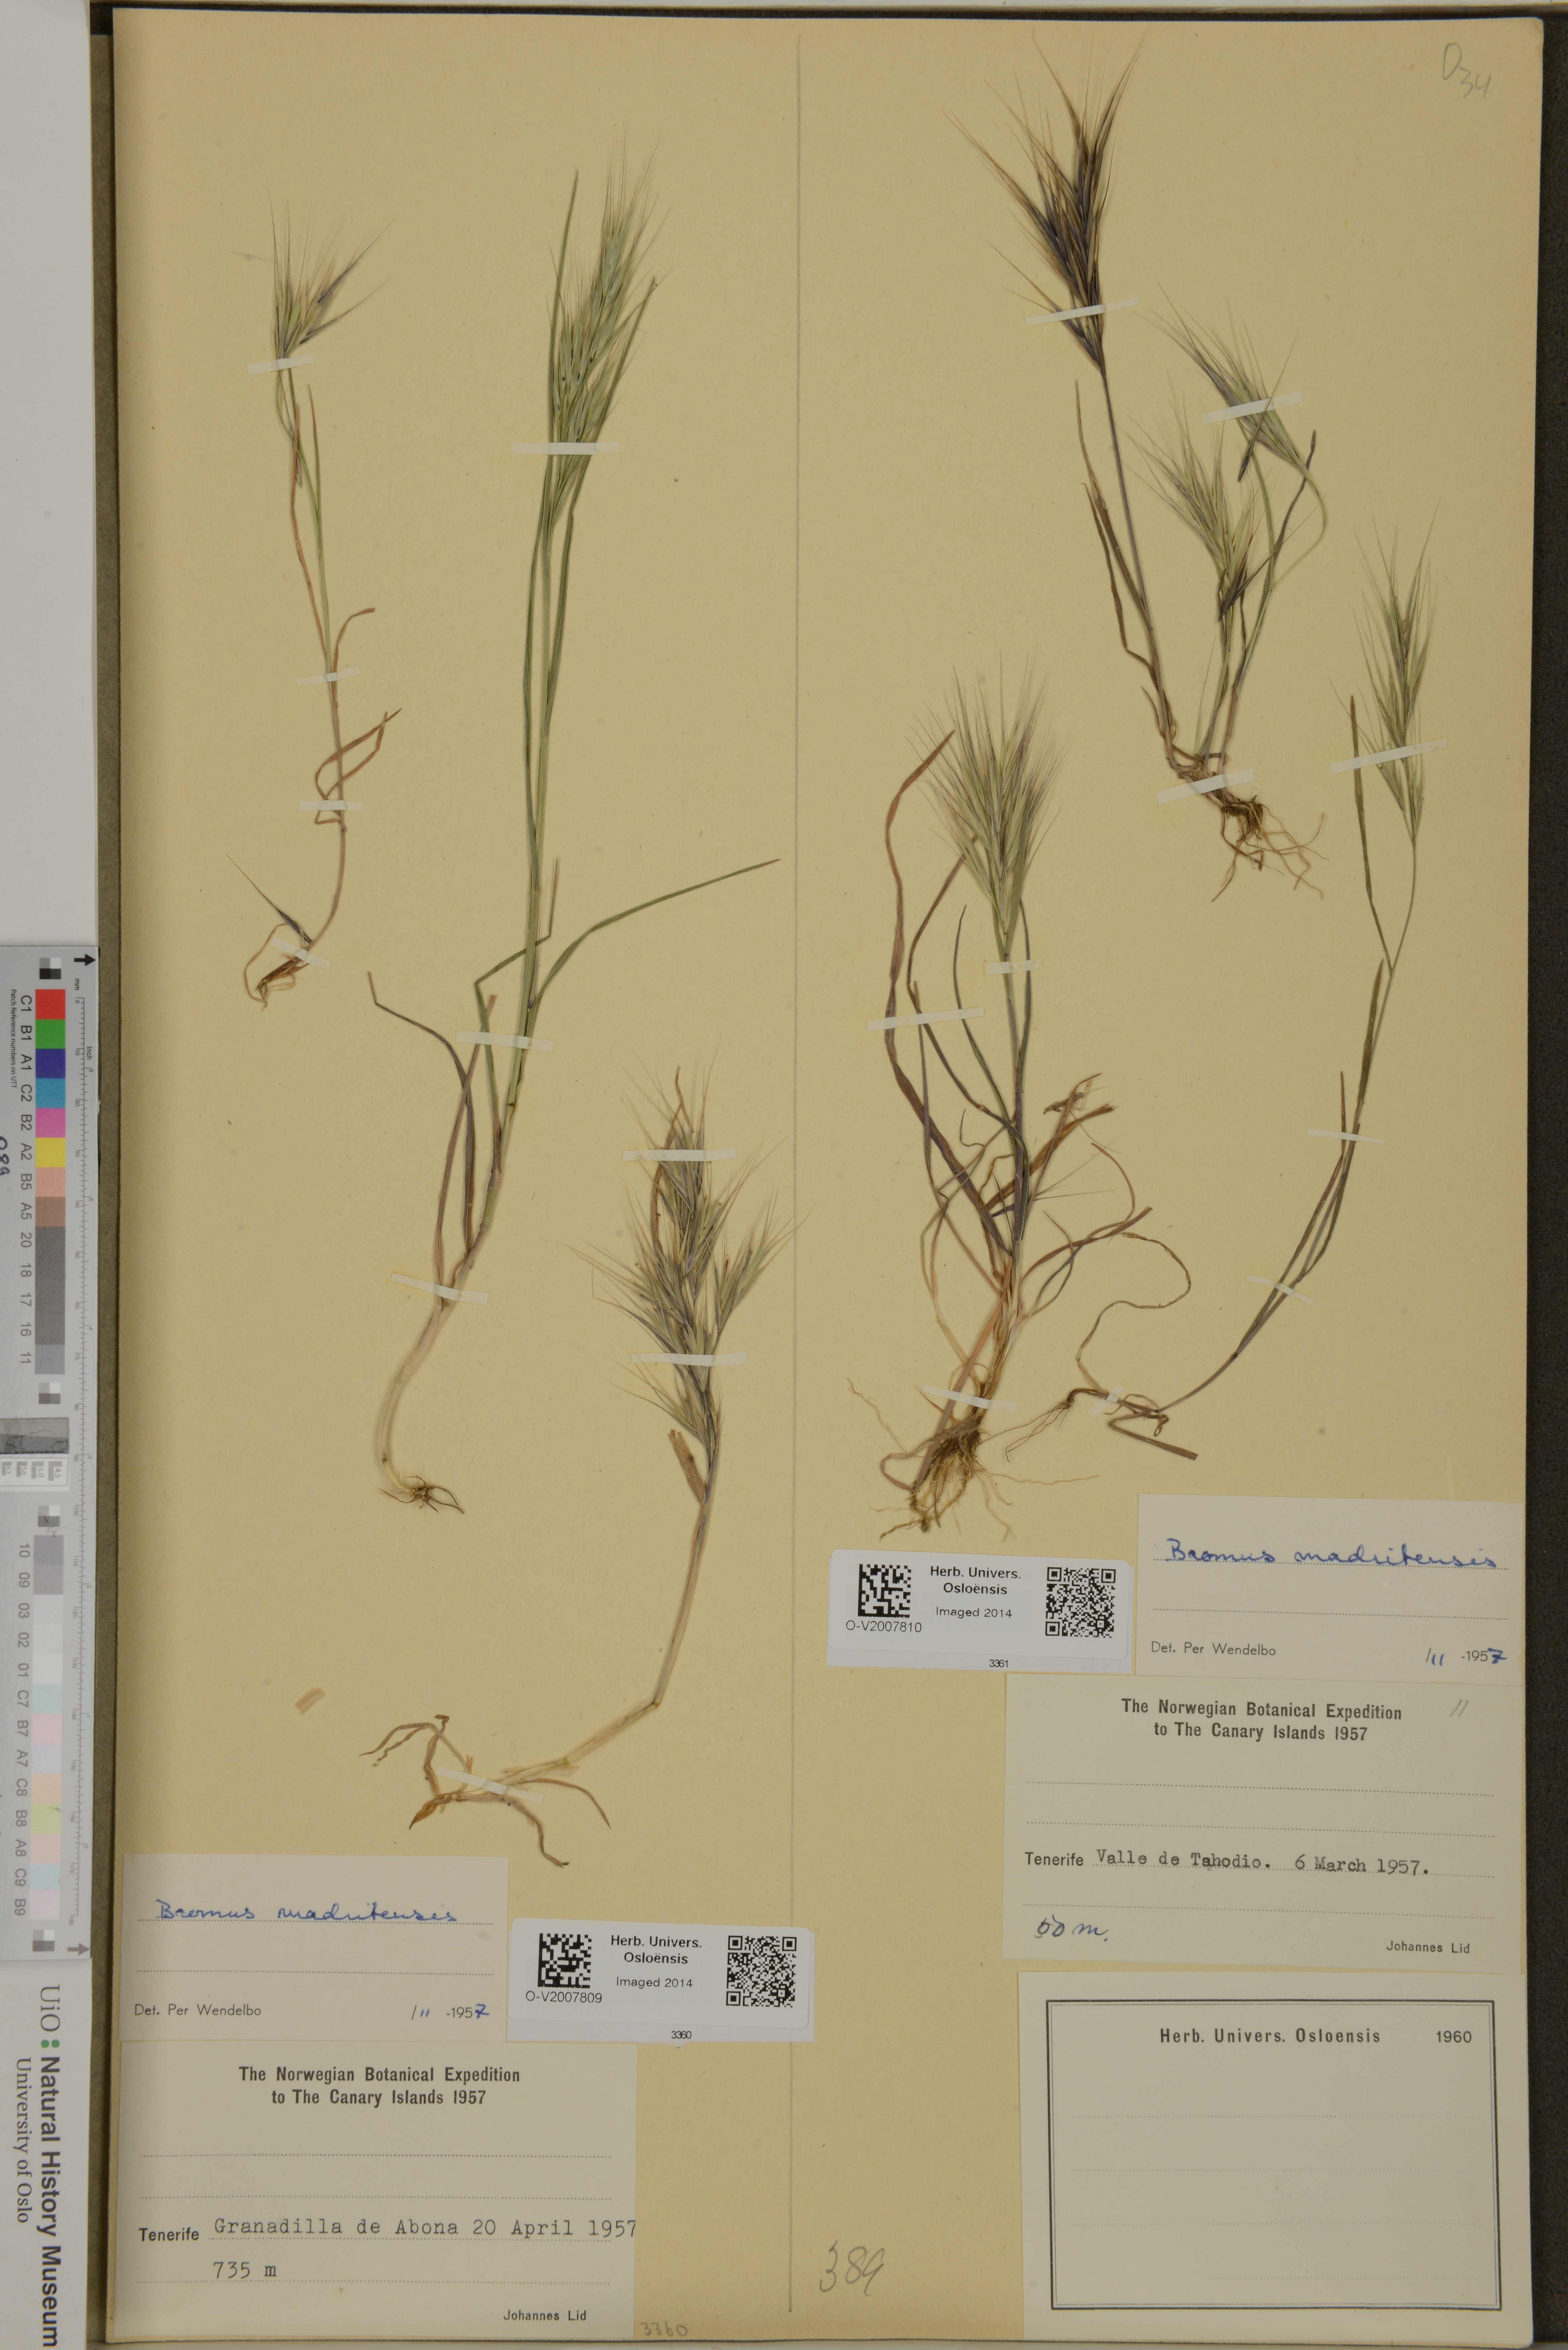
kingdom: Plantae
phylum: Tracheophyta
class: Liliopsida
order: Poales
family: Poaceae
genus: Bromus
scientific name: Bromus madritensis
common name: Compact brome
